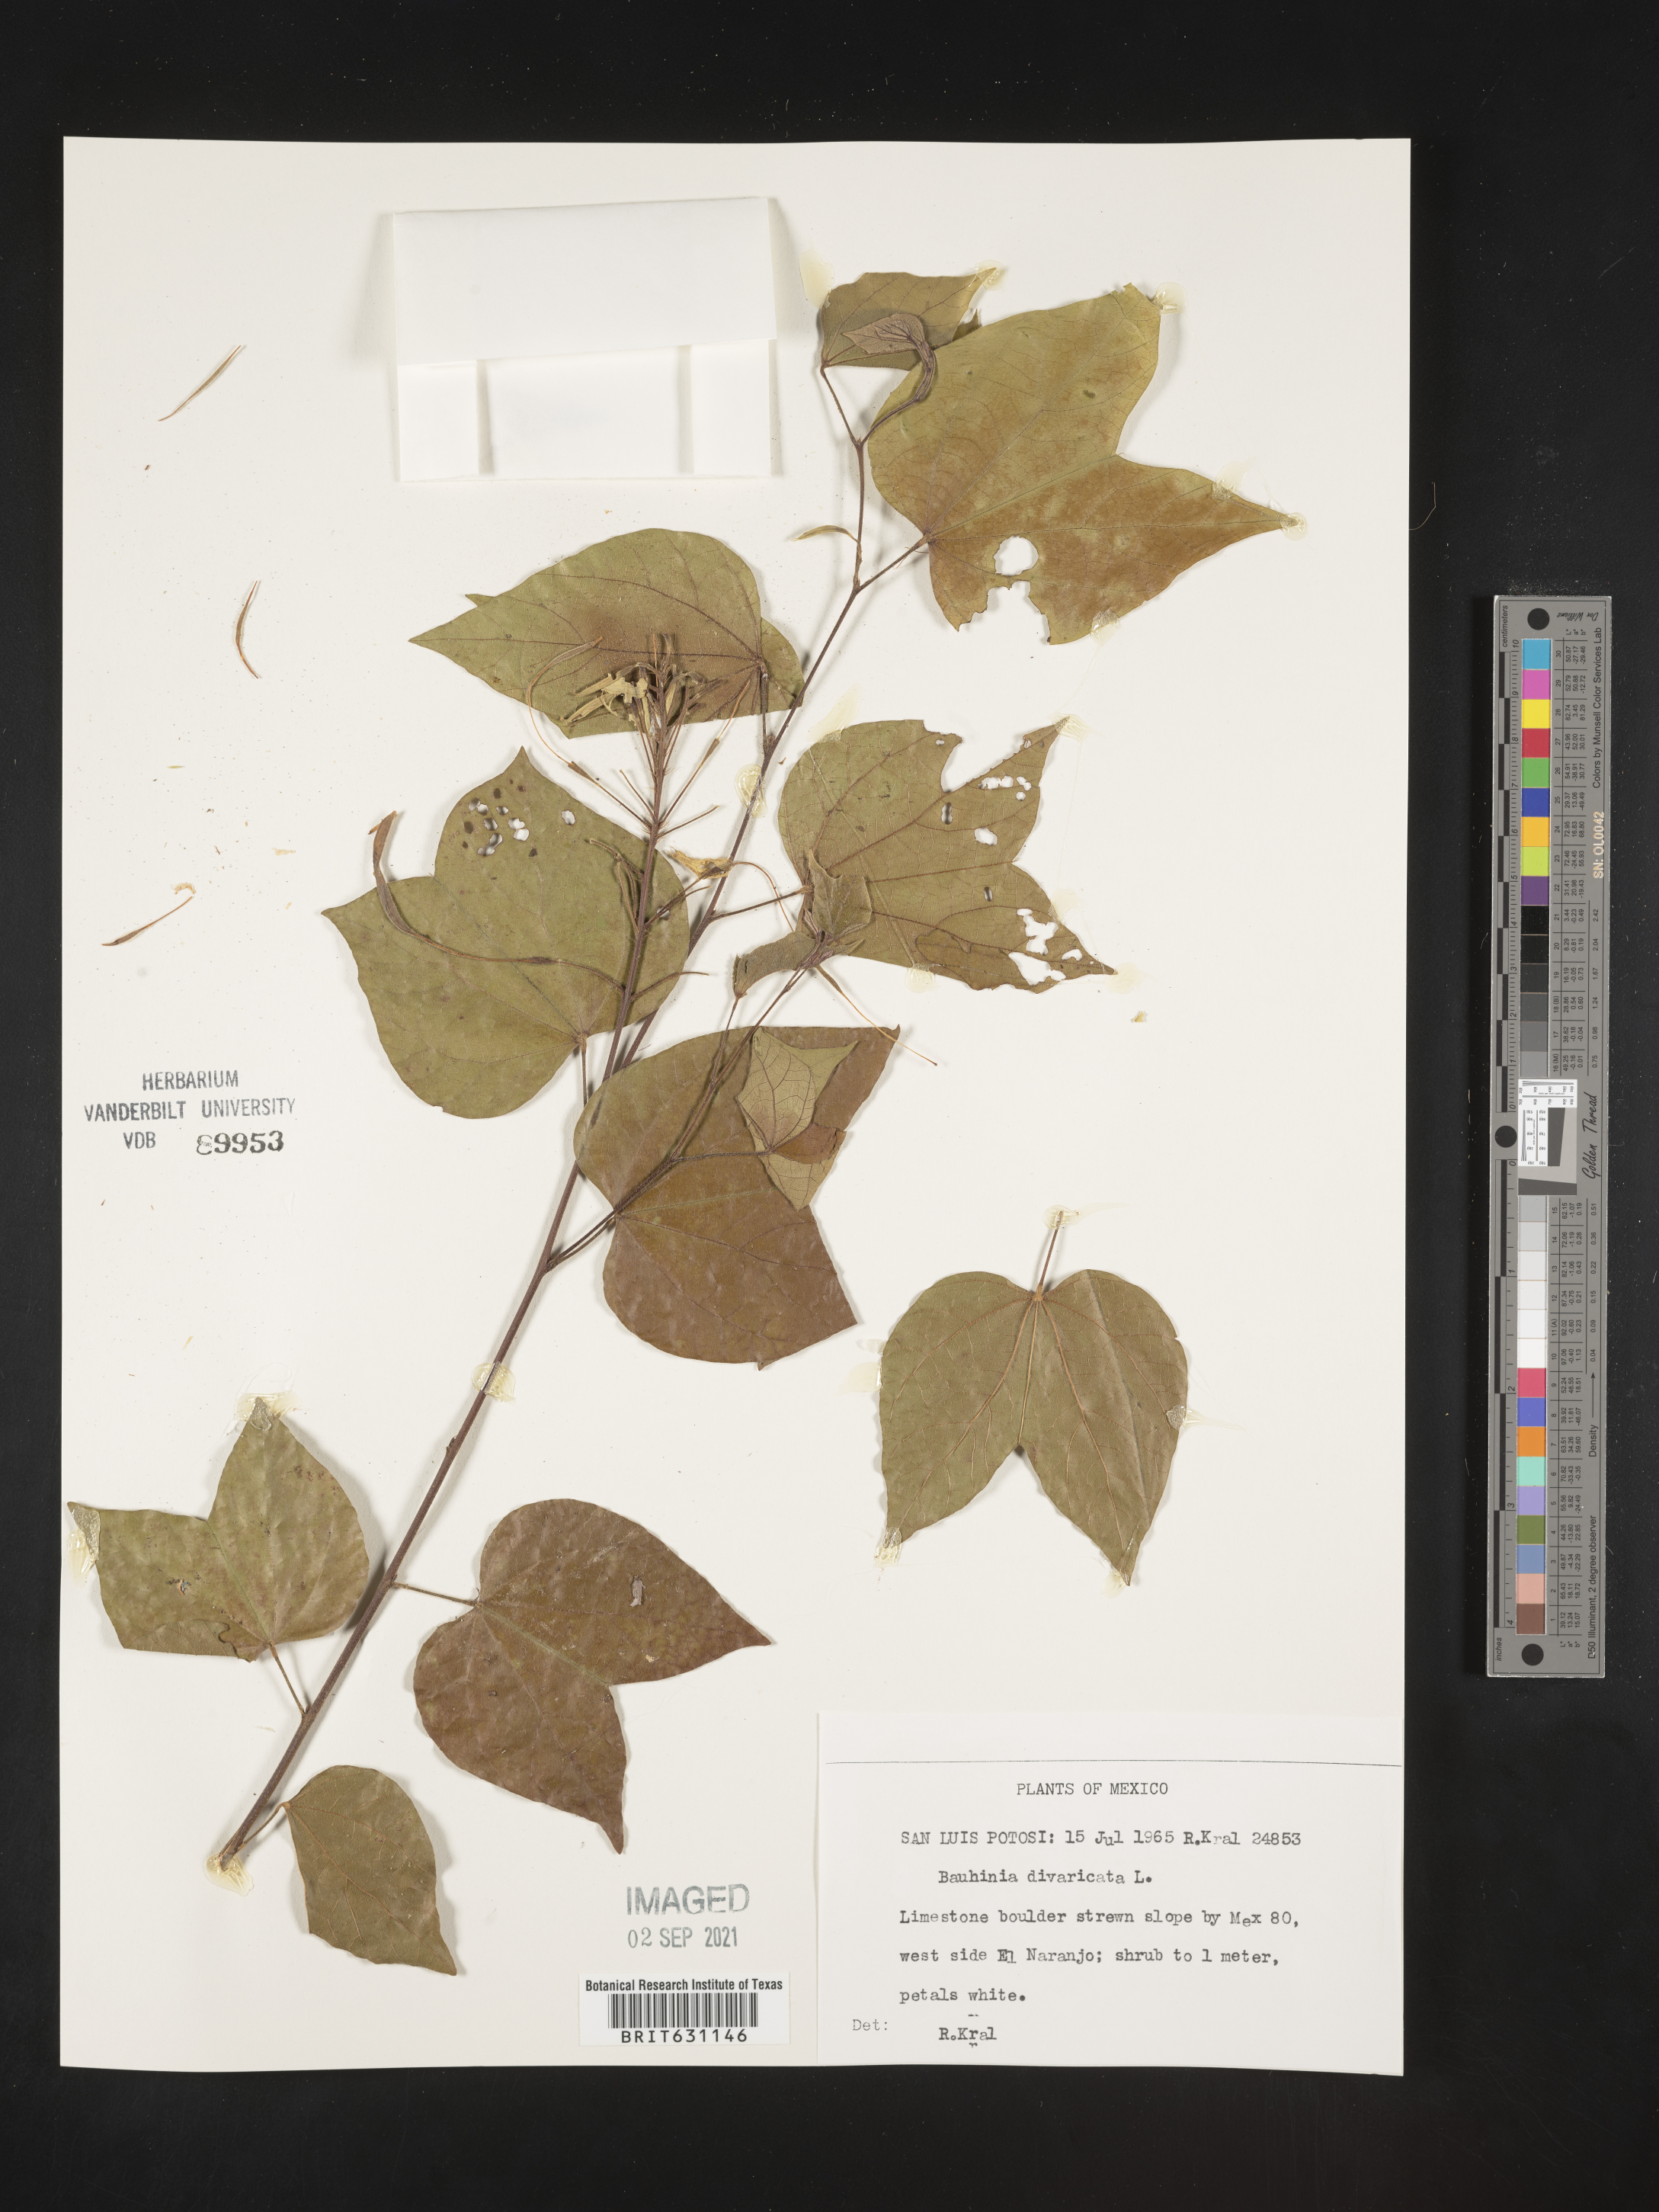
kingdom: Plantae
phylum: Tracheophyta
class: Magnoliopsida
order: Fabales
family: Fabaceae
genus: Bauhinia
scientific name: Bauhinia
